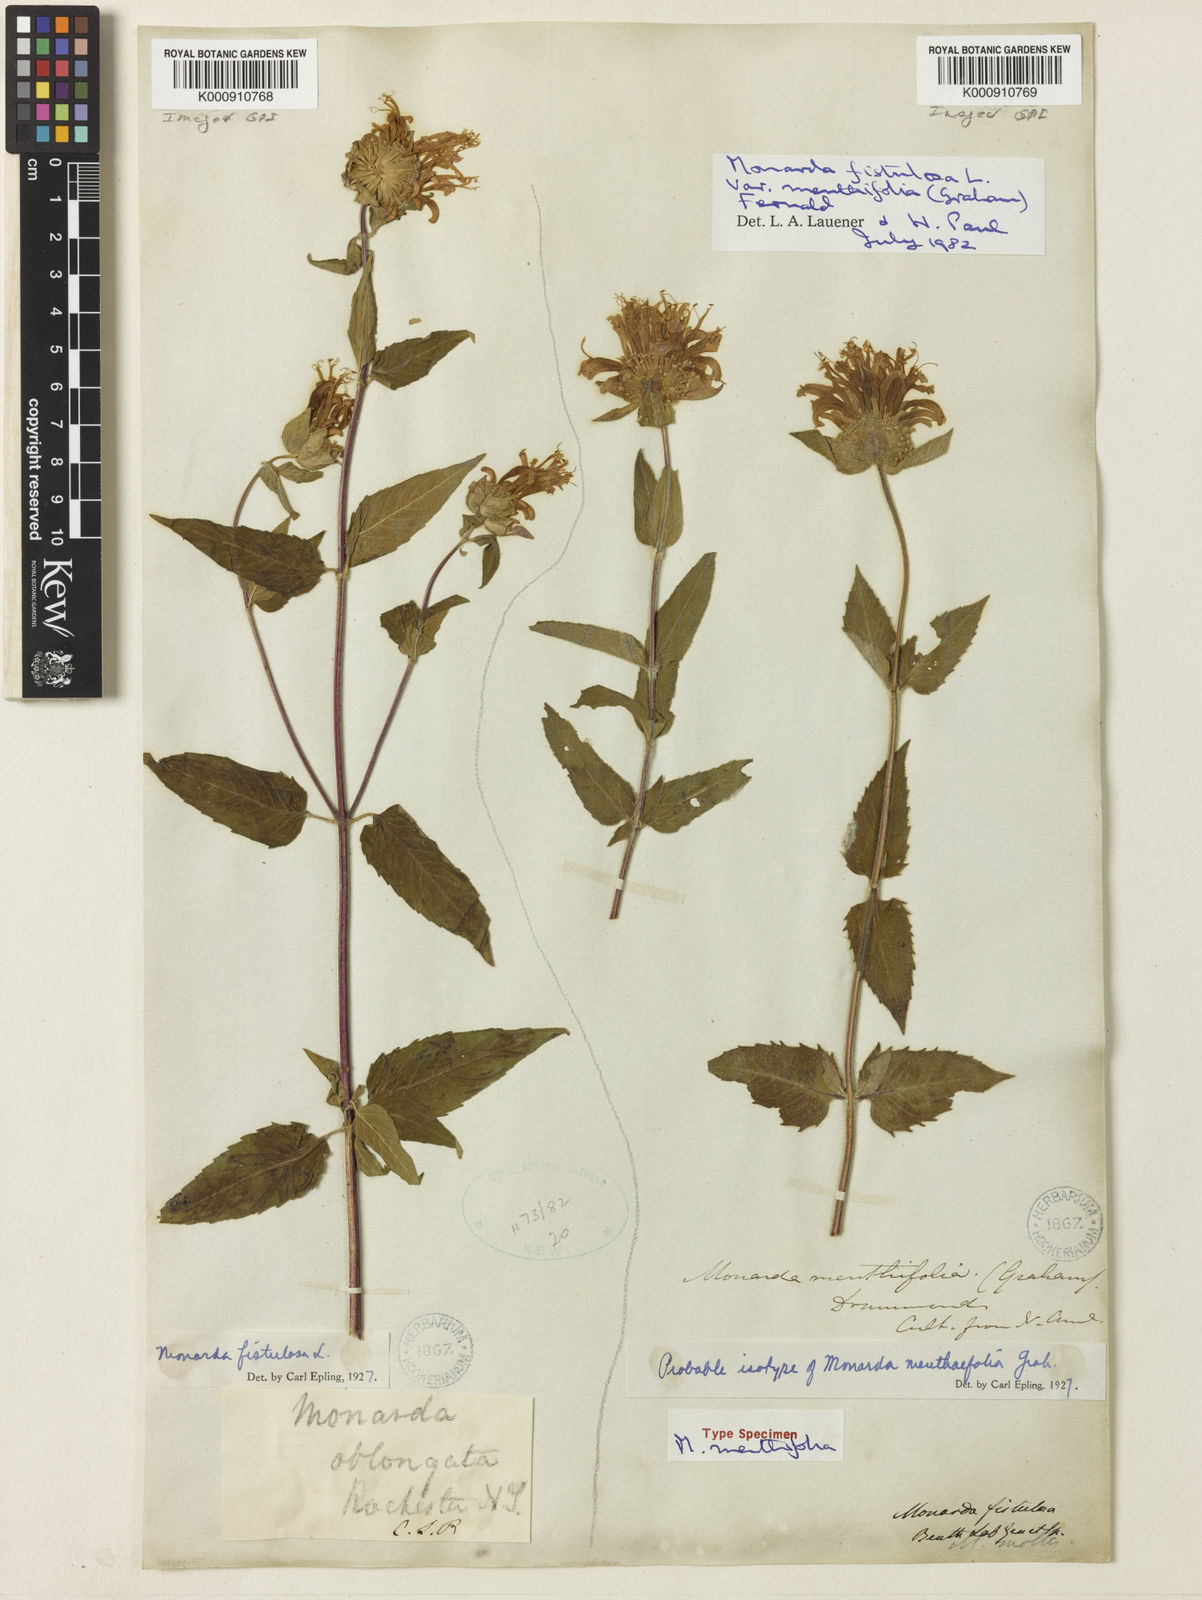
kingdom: Plantae
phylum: Tracheophyta
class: Magnoliopsida
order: Lamiales
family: Lamiaceae
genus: Monarda
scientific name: Monarda fistulosa
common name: Purple beebalm
